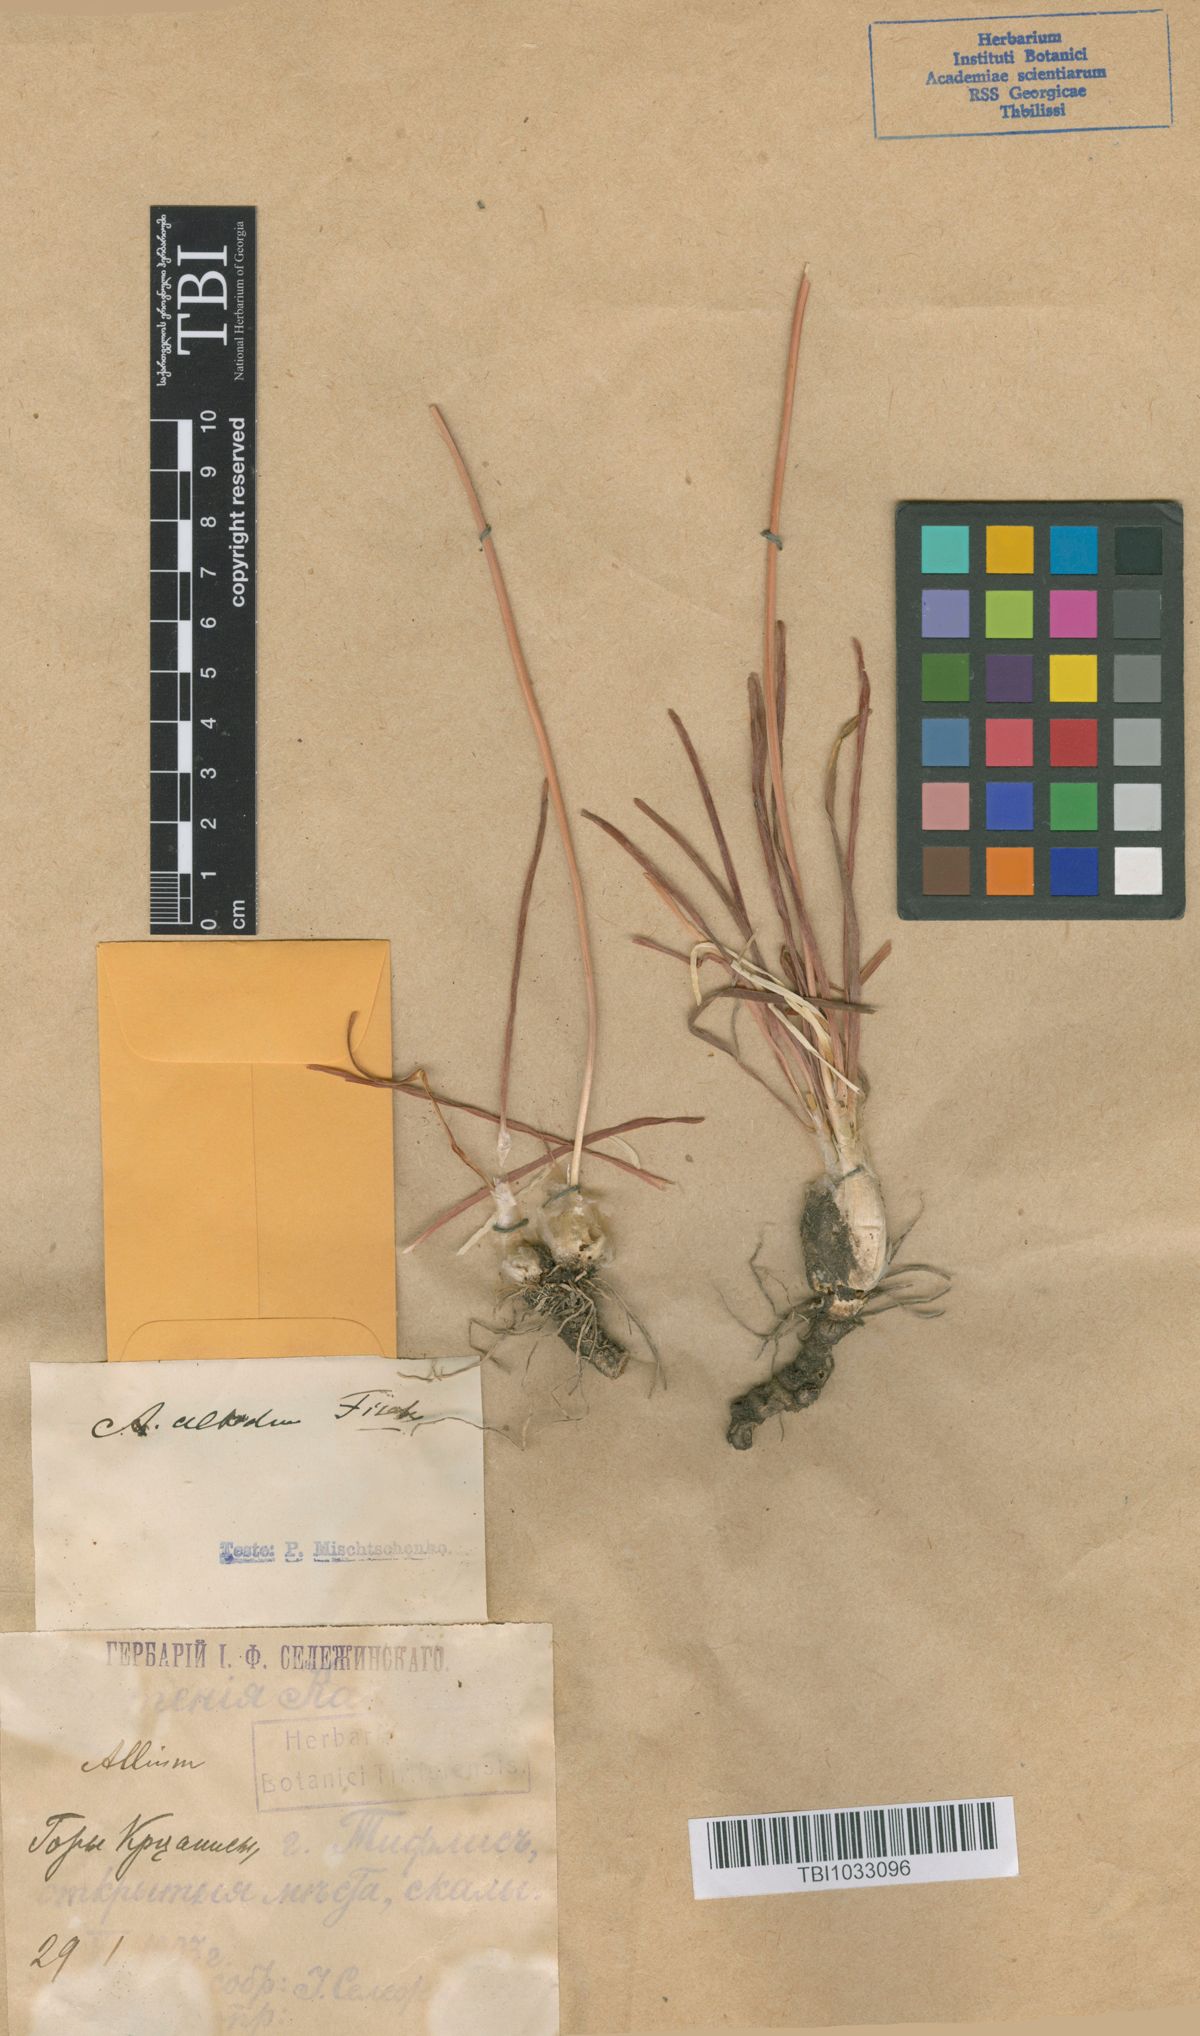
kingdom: Plantae
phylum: Tracheophyta
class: Liliopsida
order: Asparagales
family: Amaryllidaceae
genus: Allium
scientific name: Allium denudatum
